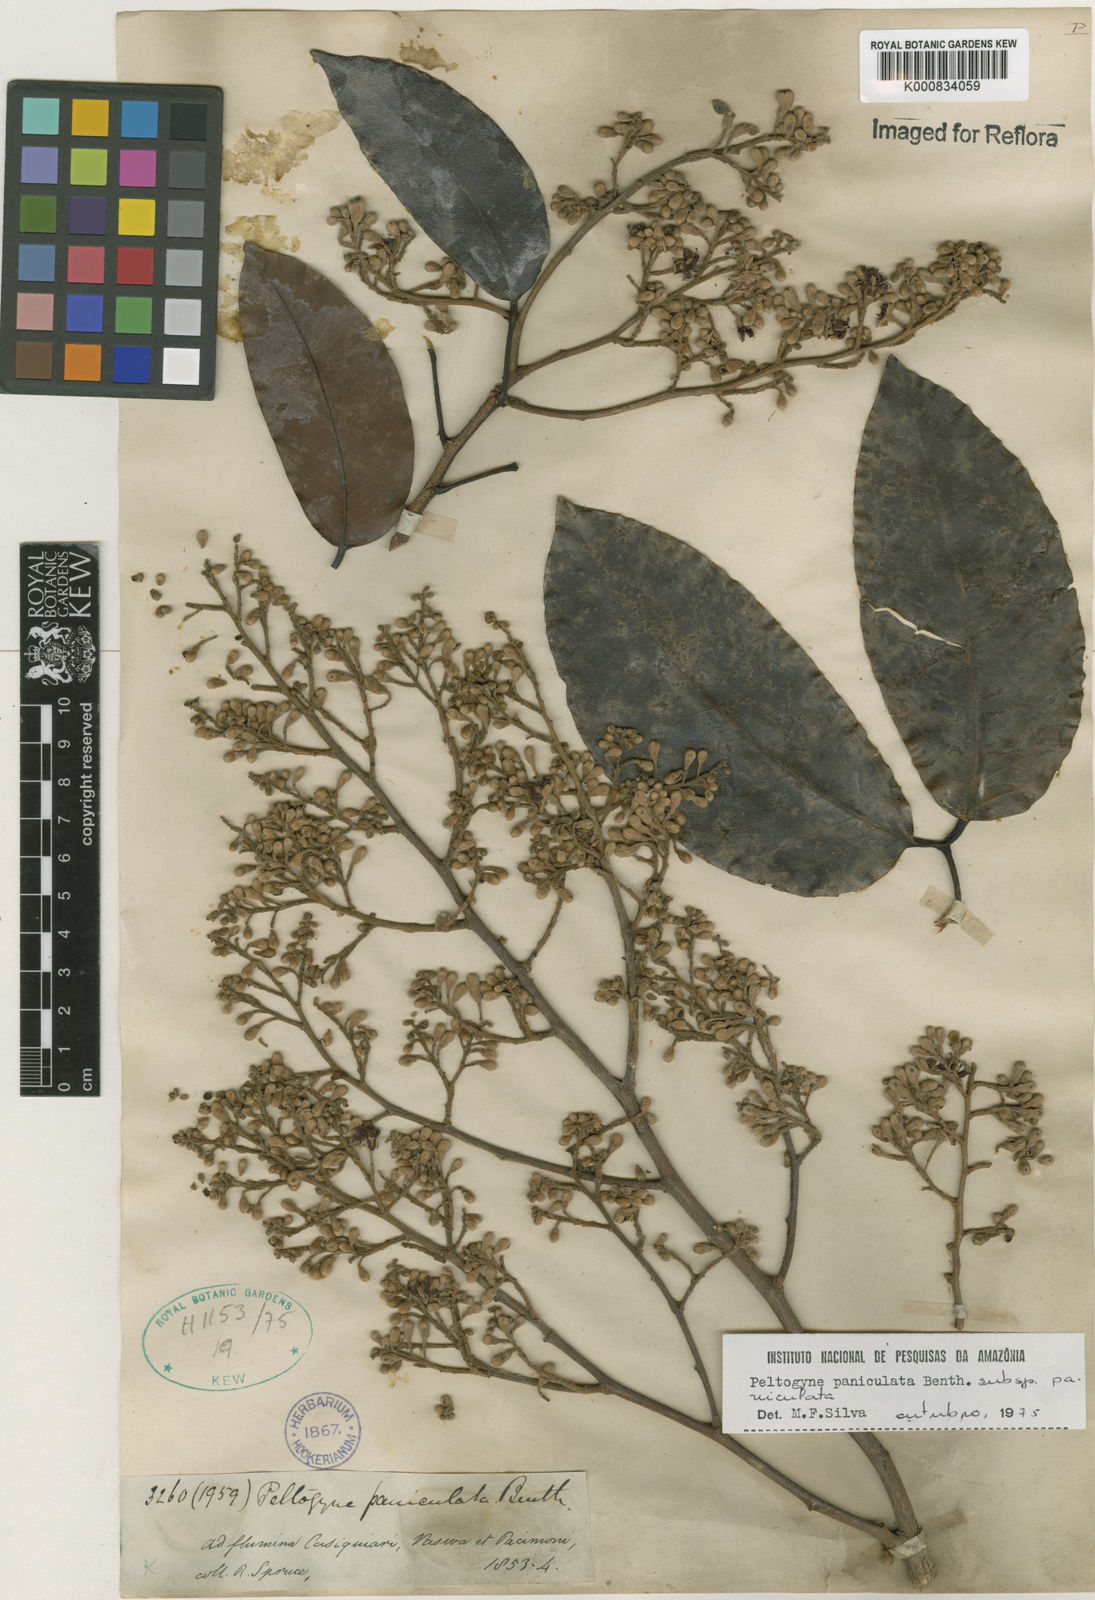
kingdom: Plantae
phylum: Tracheophyta
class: Magnoliopsida
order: Fabales
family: Fabaceae
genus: Peltogyne
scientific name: Peltogyne paniculata
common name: Purpleheart
